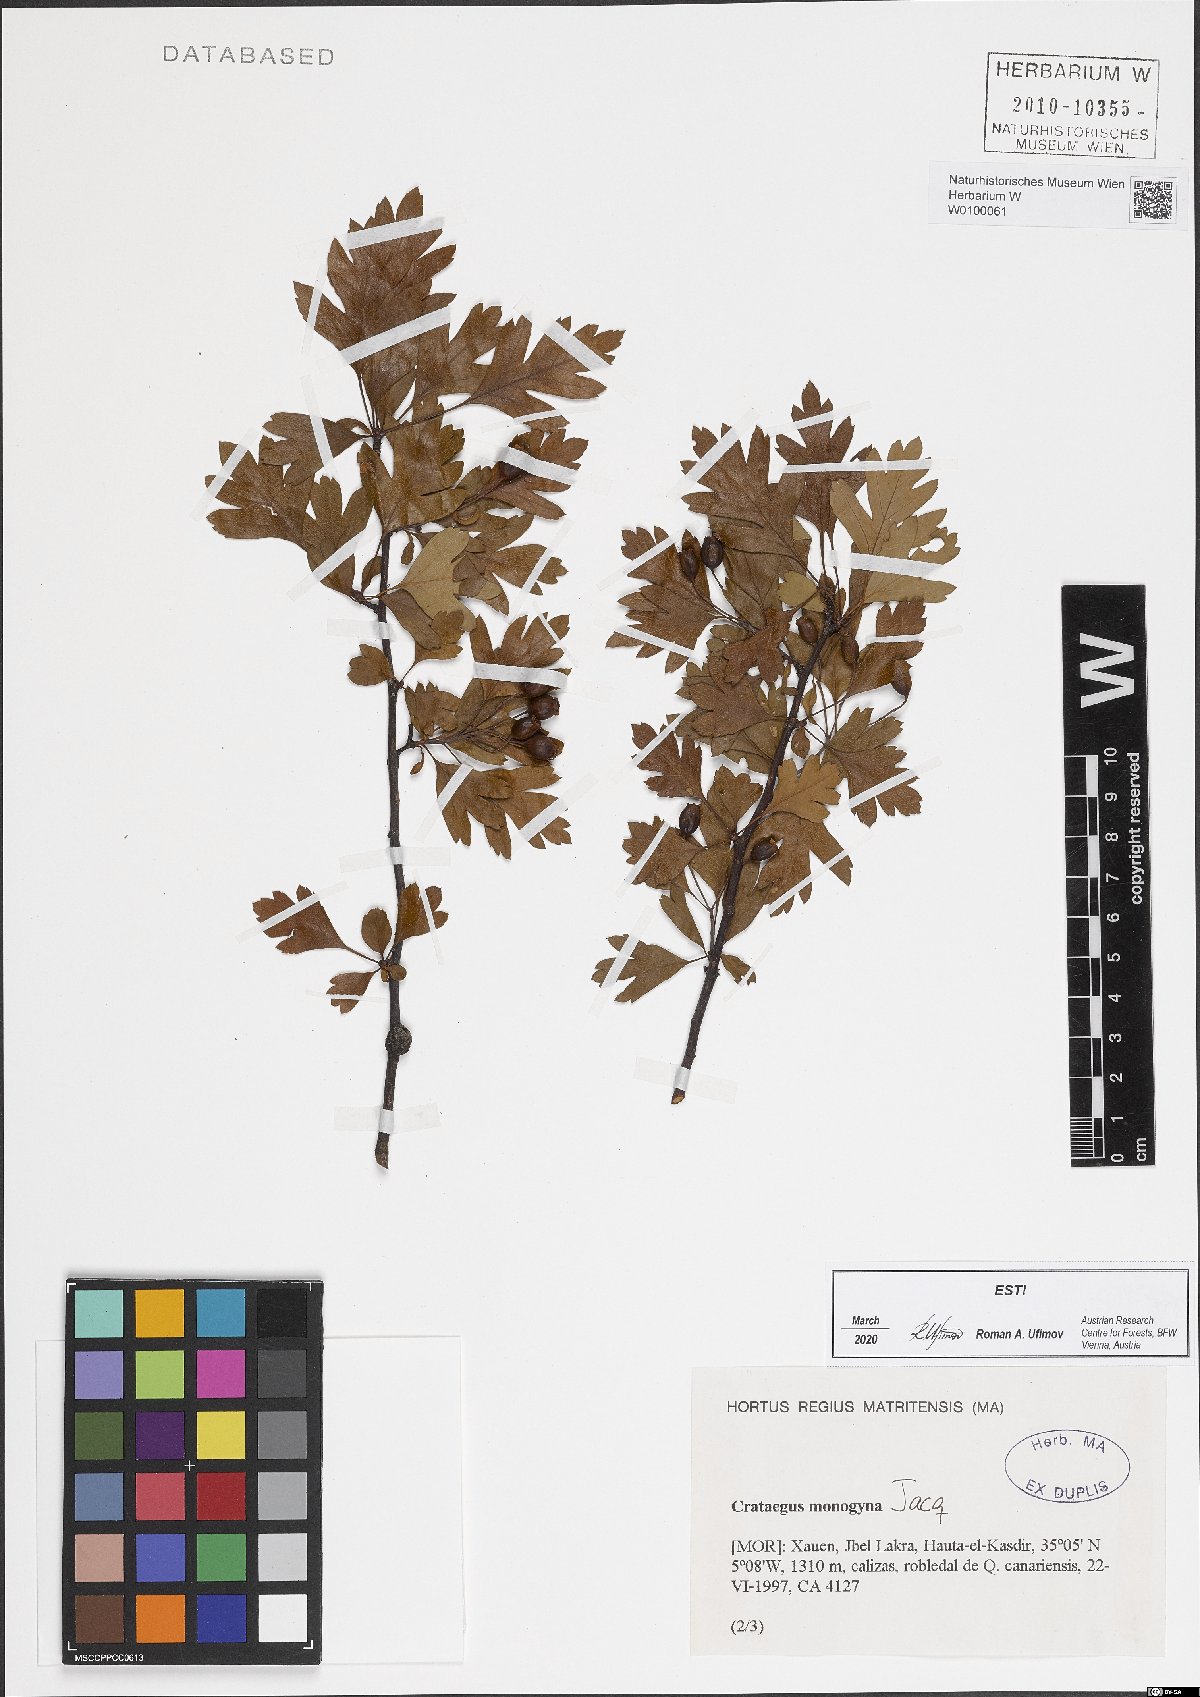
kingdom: Plantae
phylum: Tracheophyta
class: Magnoliopsida
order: Rosales
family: Rosaceae
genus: Crataegus
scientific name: Crataegus monogyna
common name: Hawthorn
